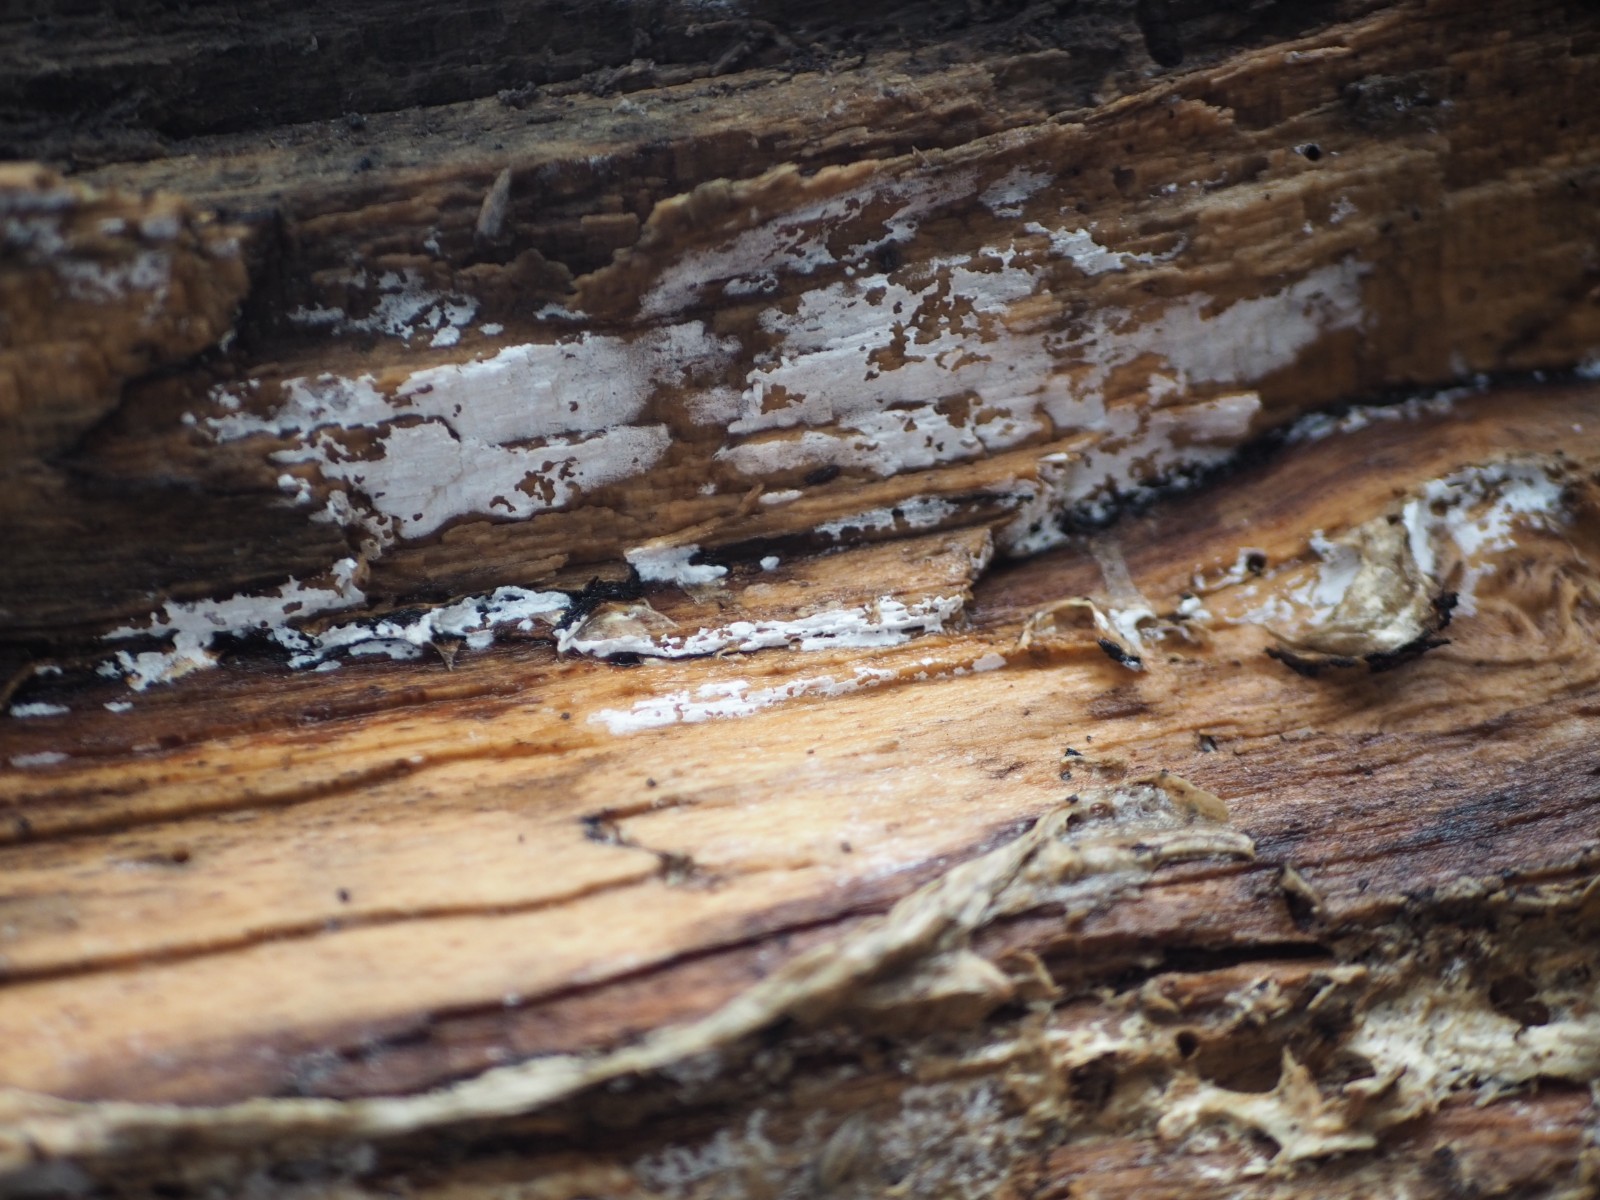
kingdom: Fungi
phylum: Basidiomycota
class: Agaricomycetes
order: Cantharellales
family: Hydnaceae
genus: Sistotrema
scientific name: Sistotrema sernanderi
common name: sur kroneskorpe
